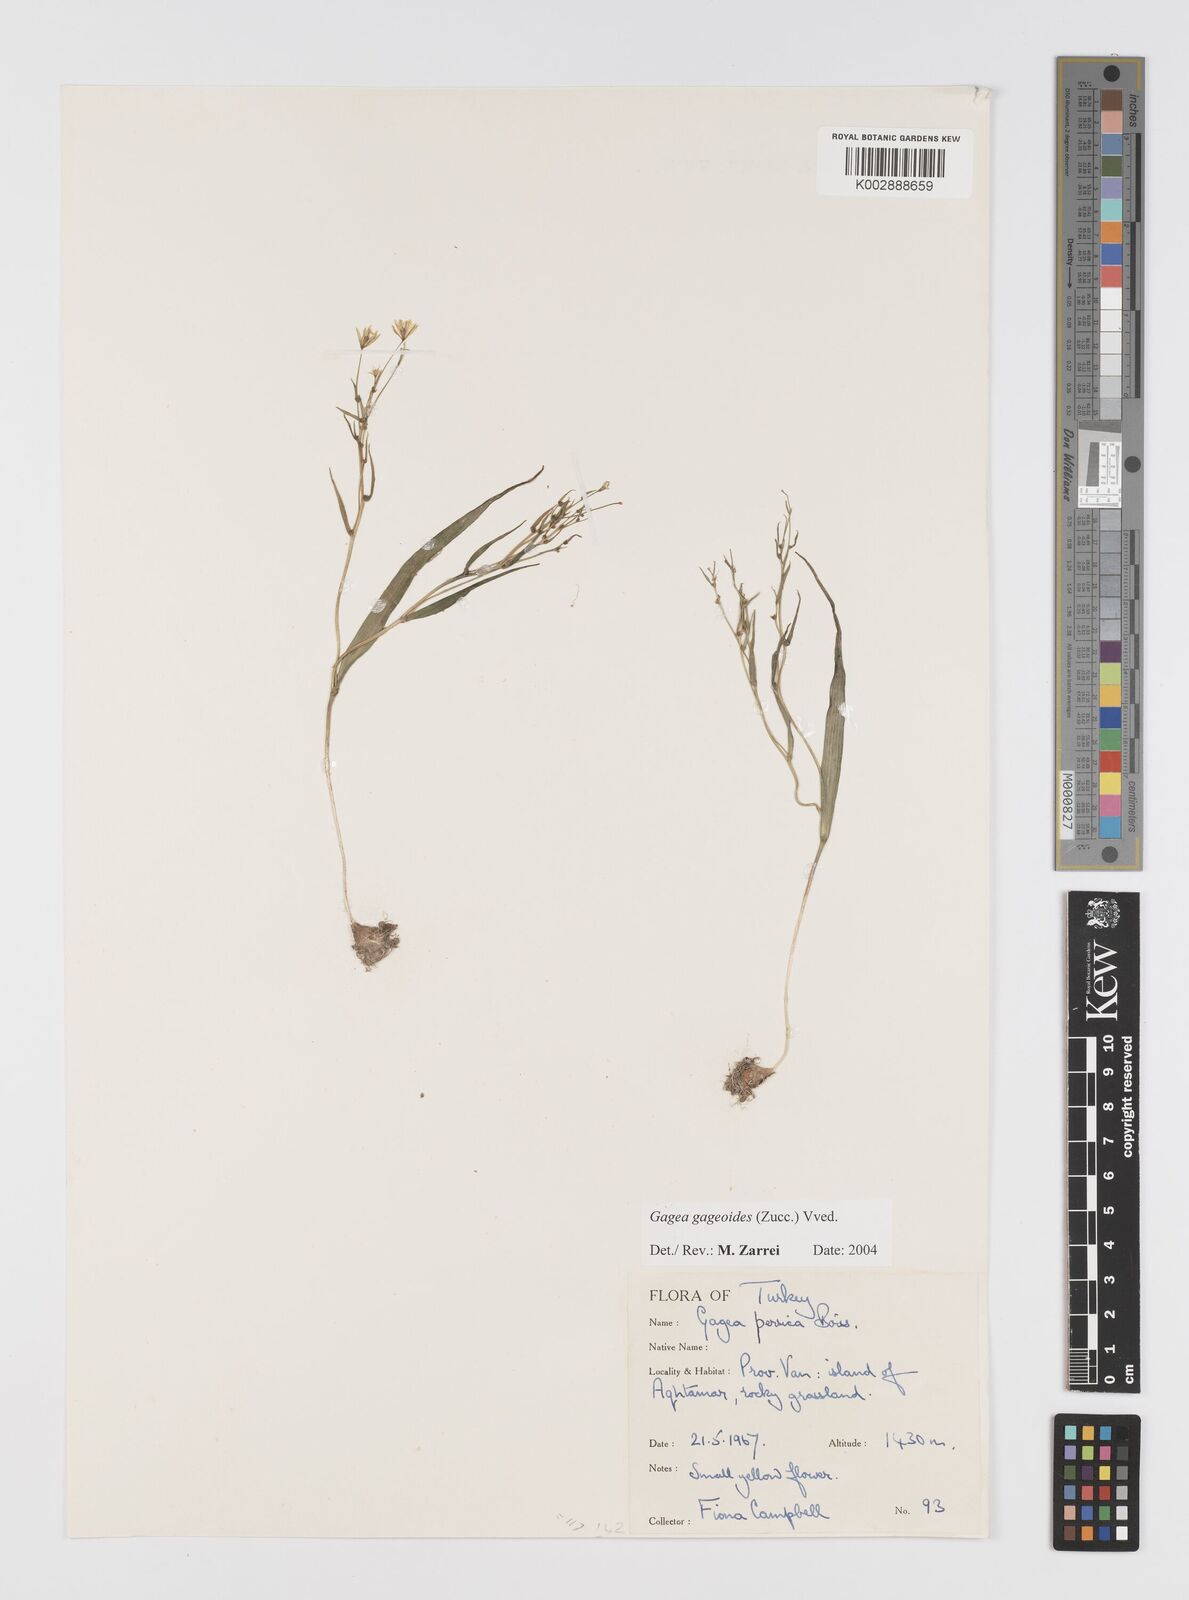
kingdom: Plantae
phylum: Tracheophyta
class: Liliopsida
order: Liliales
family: Liliaceae
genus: Gagea
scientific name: Gagea gageoides
